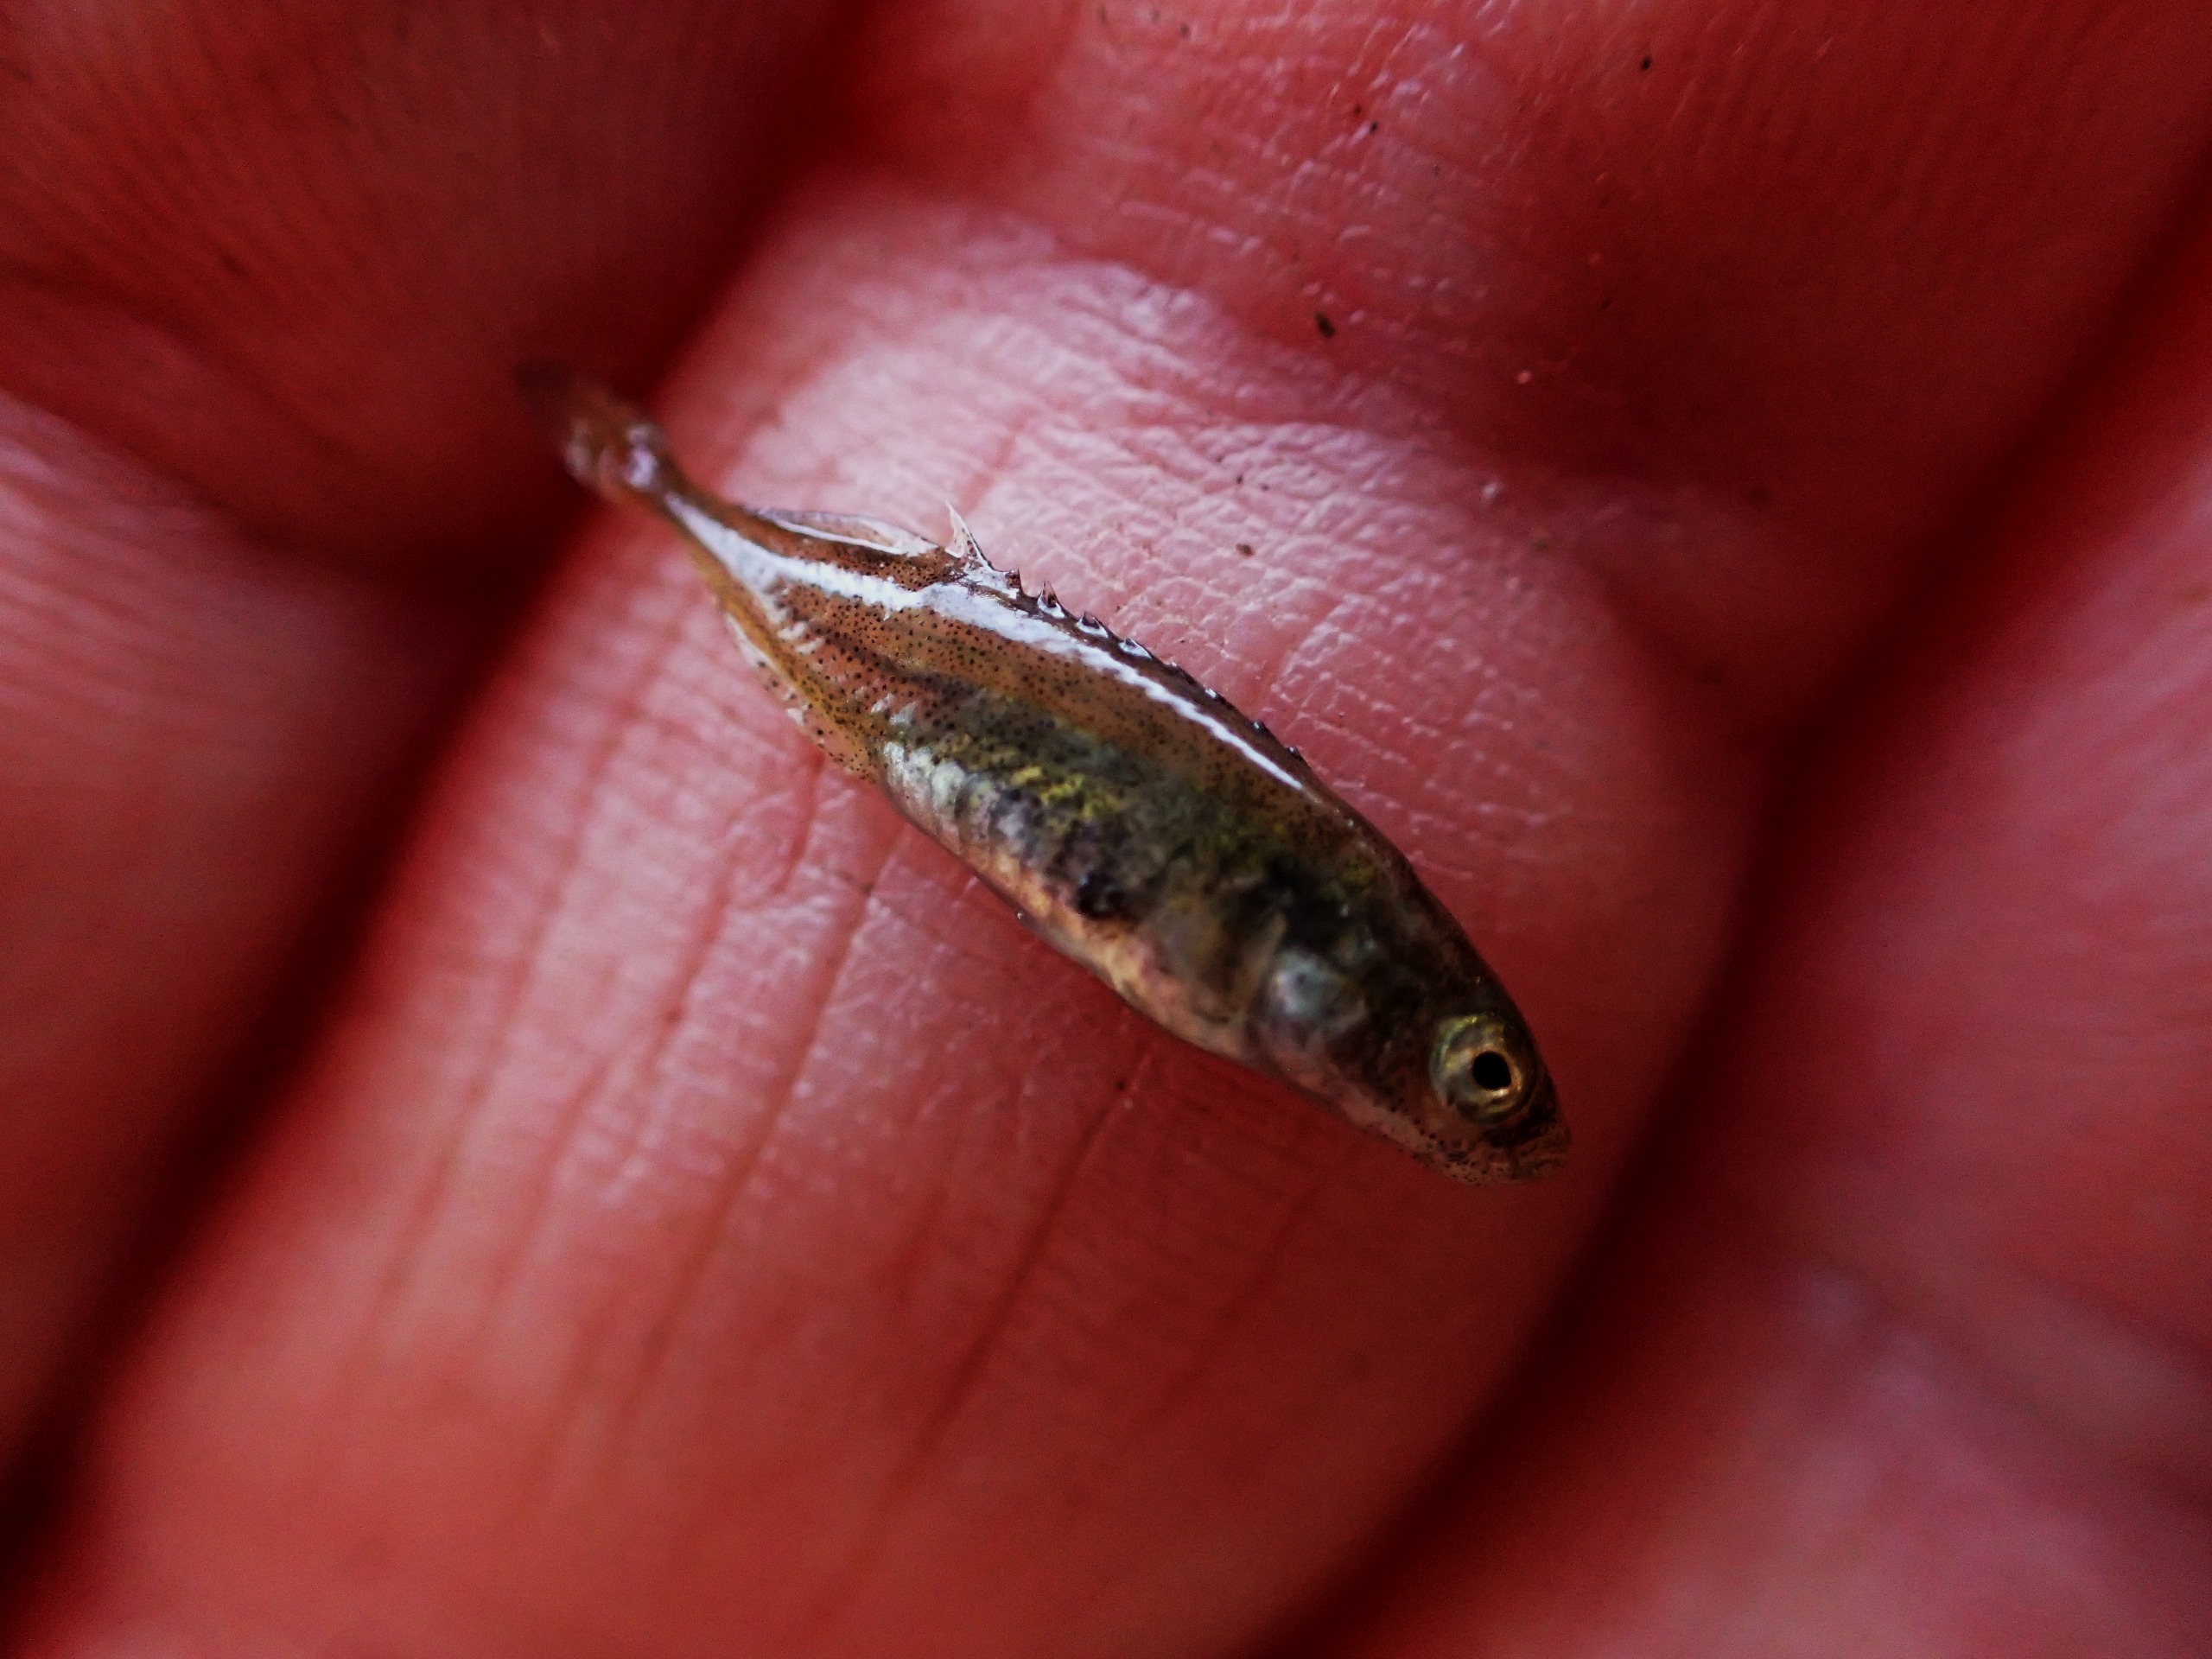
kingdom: Animalia
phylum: Chordata
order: Gasterosteiformes
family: Gasterosteidae
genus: Pungitius
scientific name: Pungitius pungitius
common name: Nipigget hundestejle
